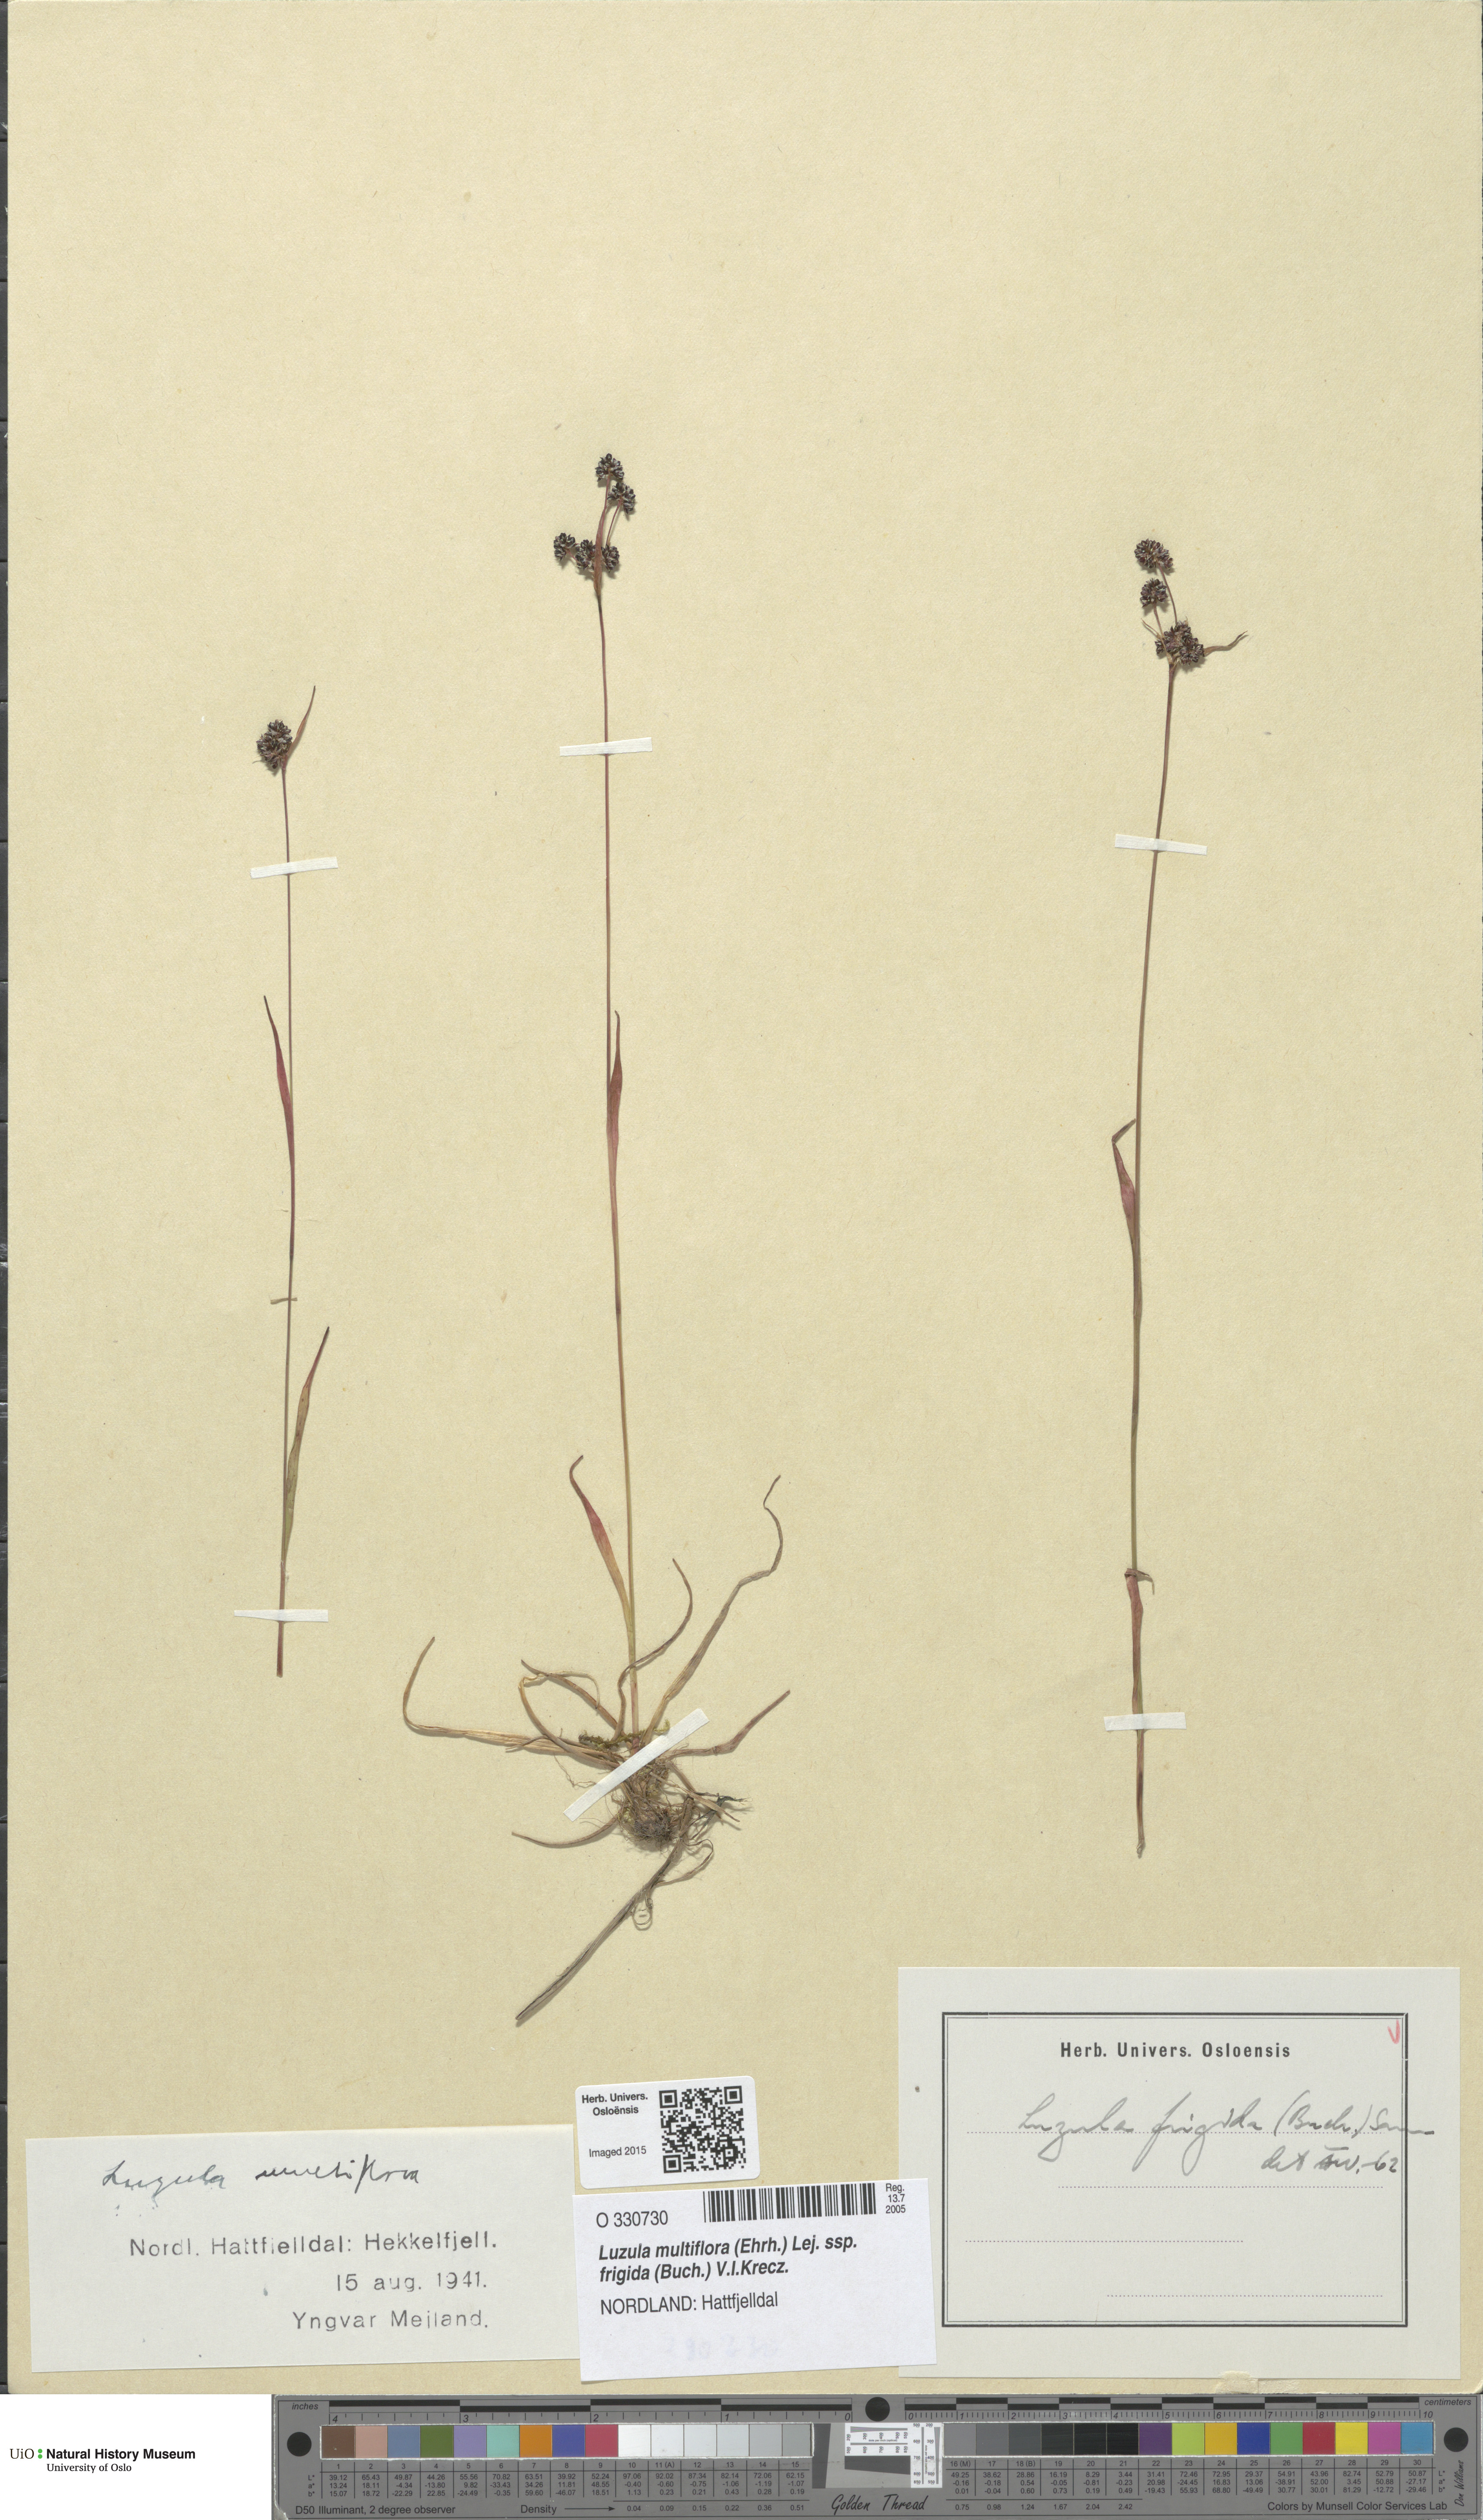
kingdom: Plantae
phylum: Tracheophyta
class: Liliopsida
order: Poales
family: Juncaceae
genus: Luzula
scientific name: Luzula multiflora
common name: Heath wood-rush
